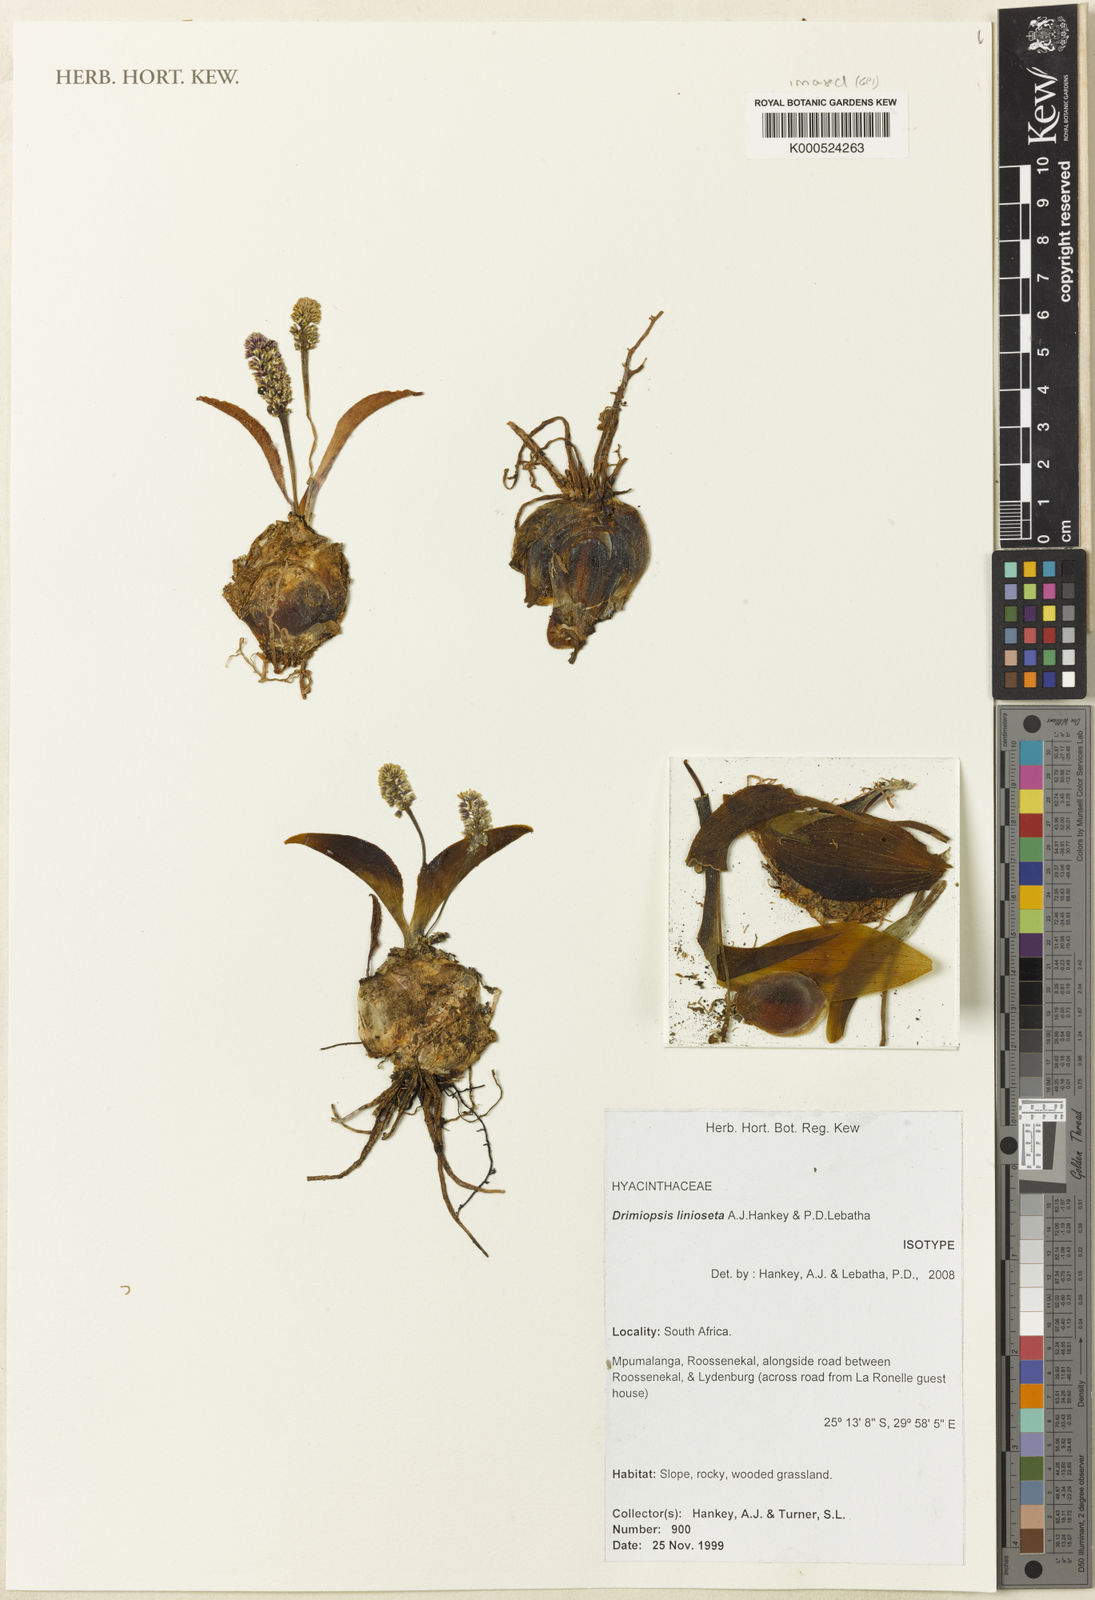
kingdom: Plantae
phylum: Tracheophyta
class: Liliopsida
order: Asparagales
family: Asparagaceae
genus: Drimiopsis
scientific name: Drimiopsis linioseta
